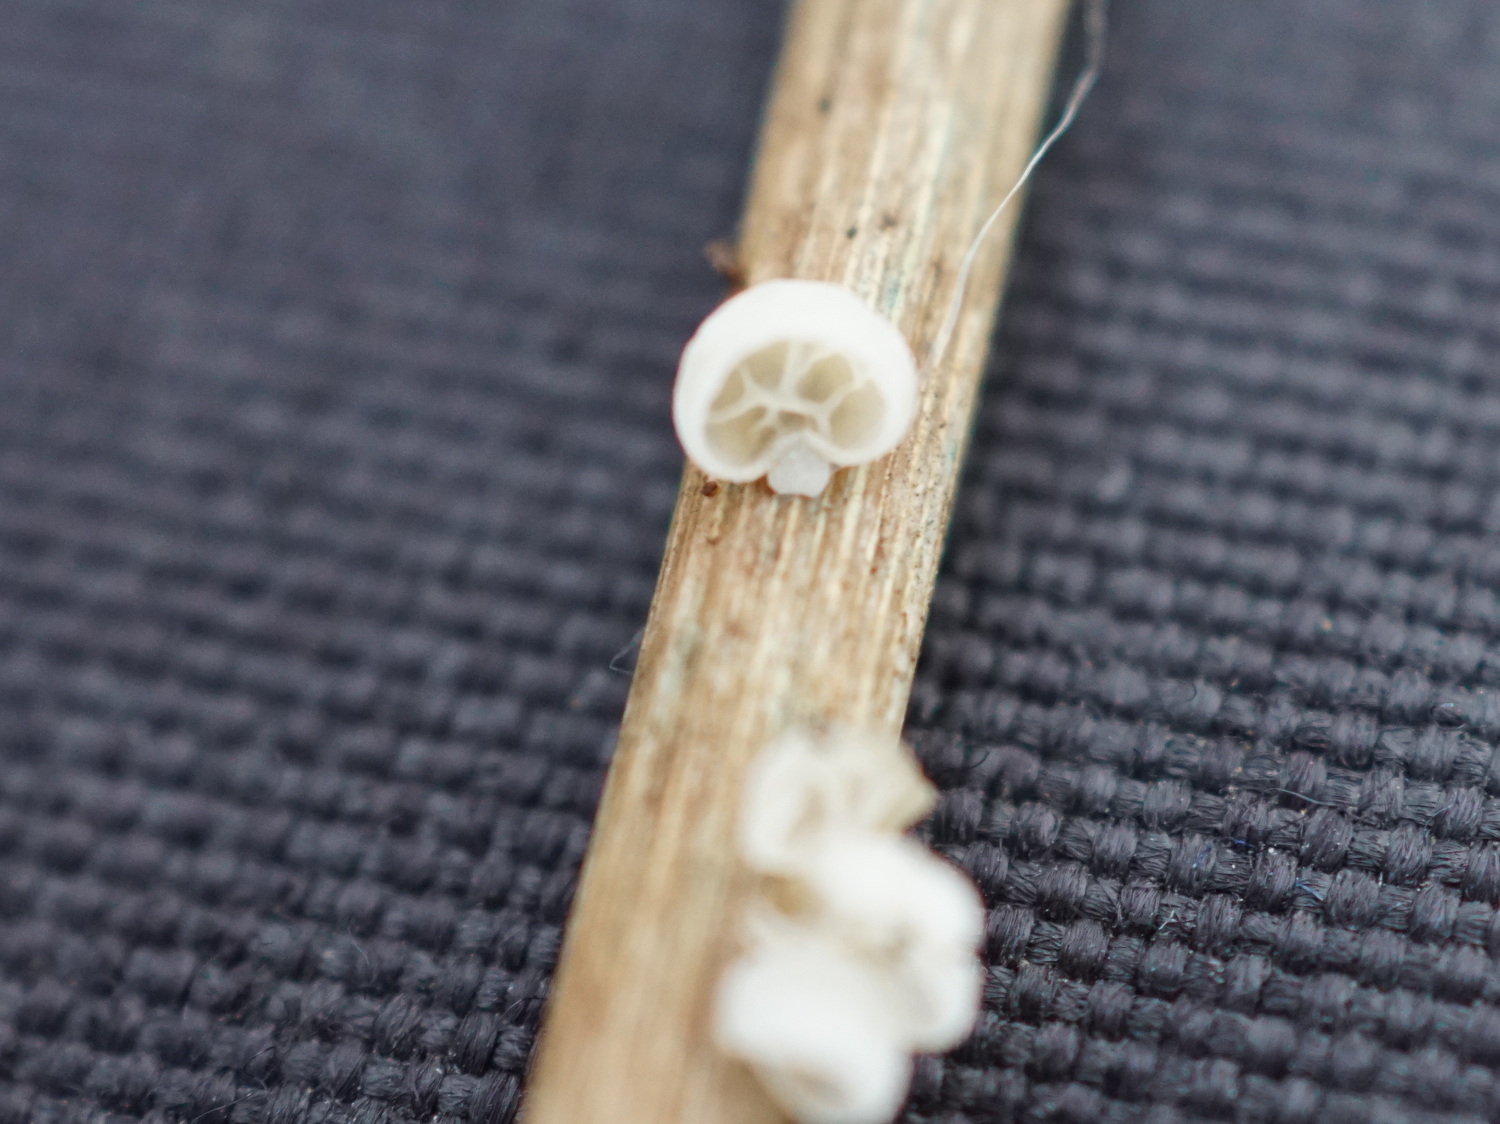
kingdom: Fungi
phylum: Basidiomycota
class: Agaricomycetes
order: Agaricales
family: Tricholomataceae
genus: Cellypha
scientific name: Cellypha goldbachii
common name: dråbeskål
